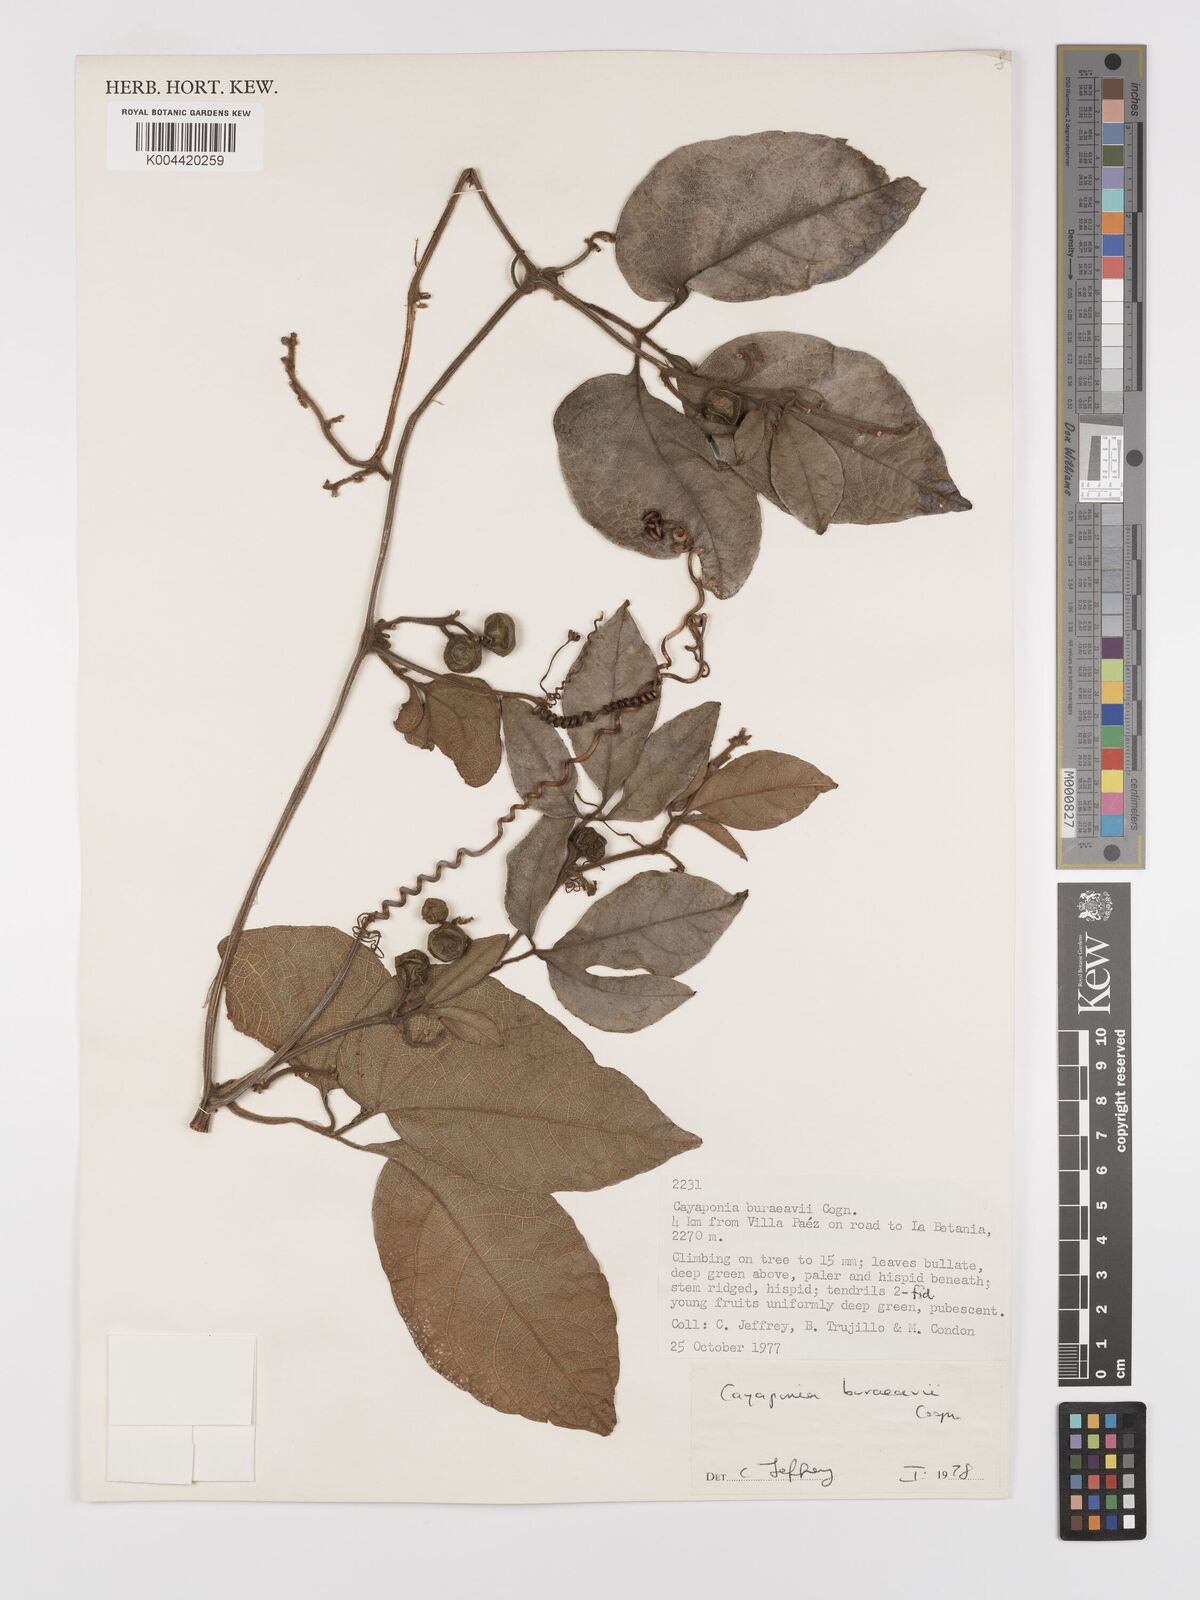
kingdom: Plantae
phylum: Tracheophyta
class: Magnoliopsida
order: Cucurbitales
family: Cucurbitaceae
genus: Cayaponia
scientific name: Cayaponia buraeavii
